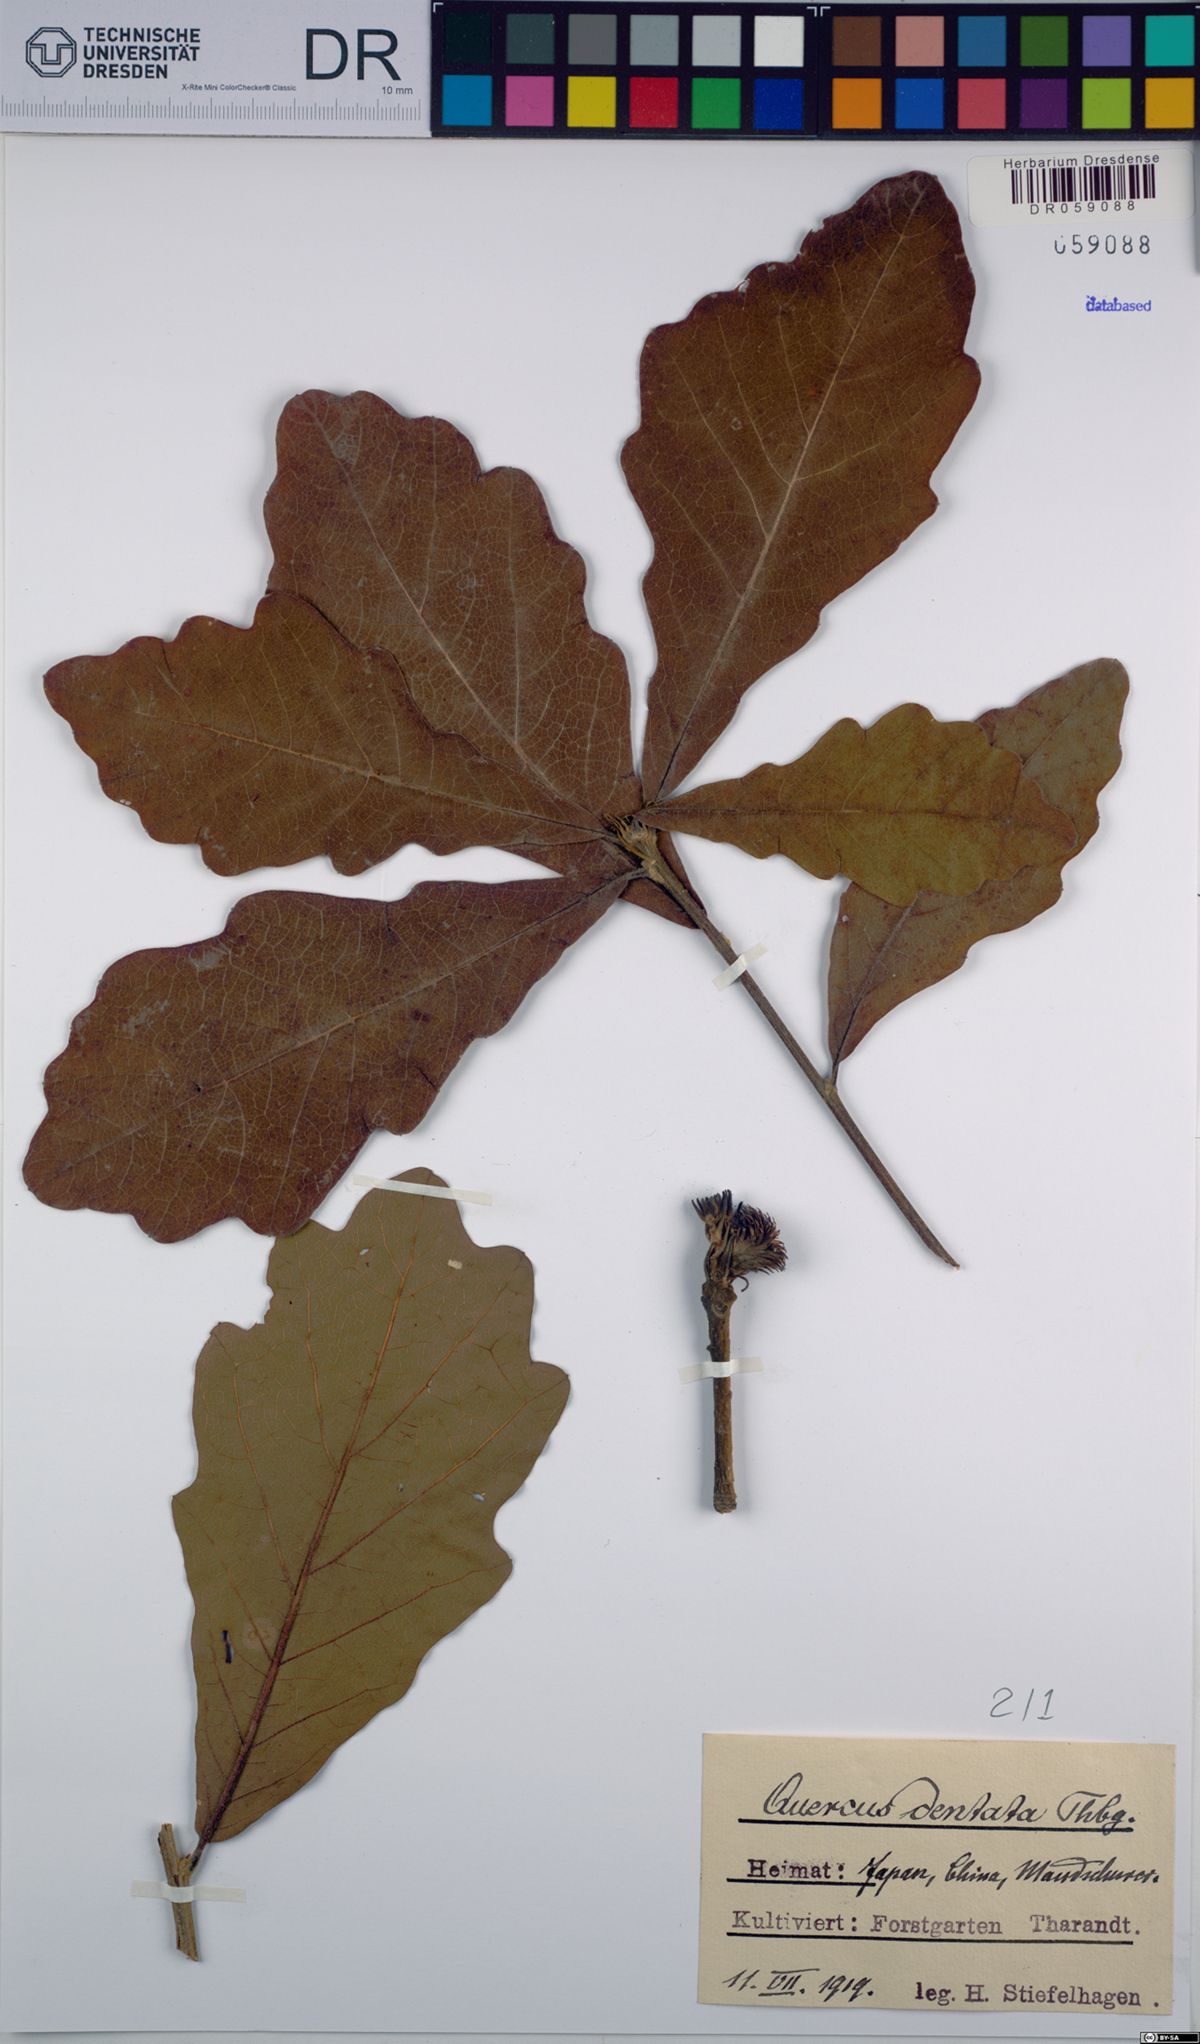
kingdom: Plantae
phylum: Tracheophyta
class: Magnoliopsida
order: Fagales
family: Fagaceae
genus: Quercus
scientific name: Quercus dentata
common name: Daimyo oak
